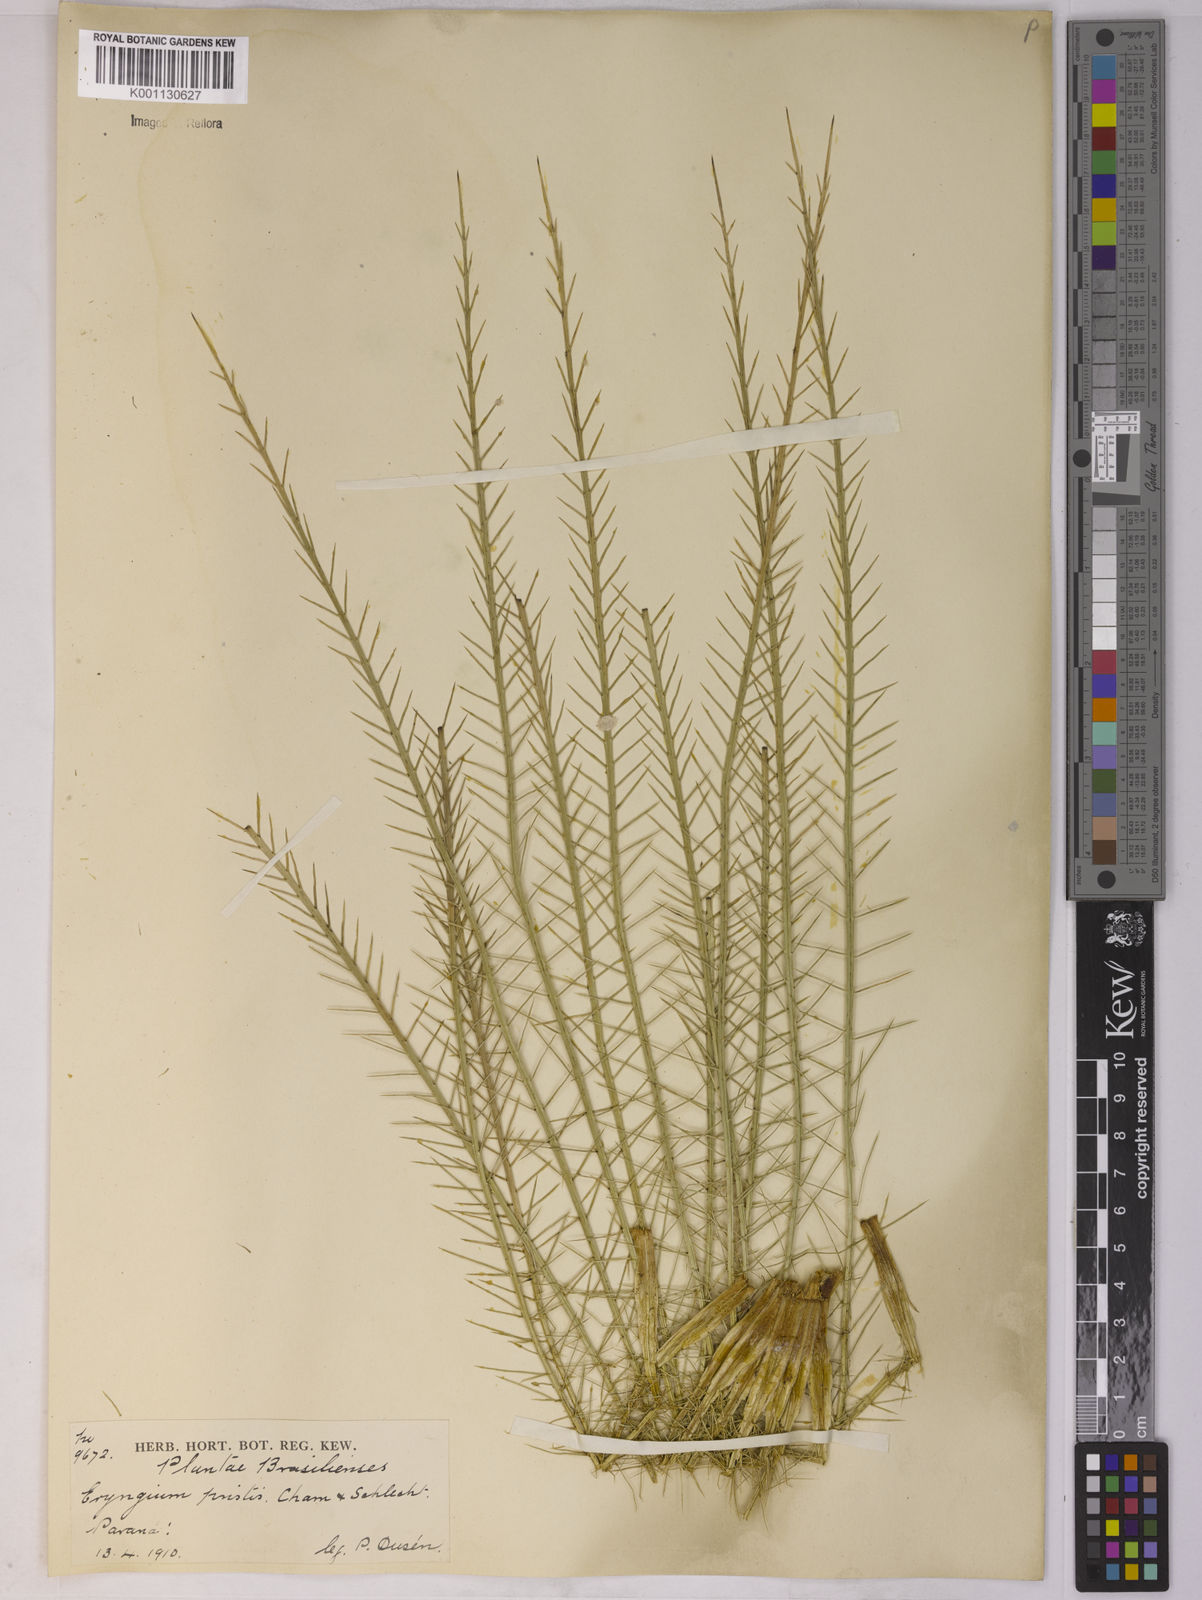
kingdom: Plantae
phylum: Tracheophyta
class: Magnoliopsida
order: Apiales
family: Apiaceae
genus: Eryngium
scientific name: Eryngium pristis
